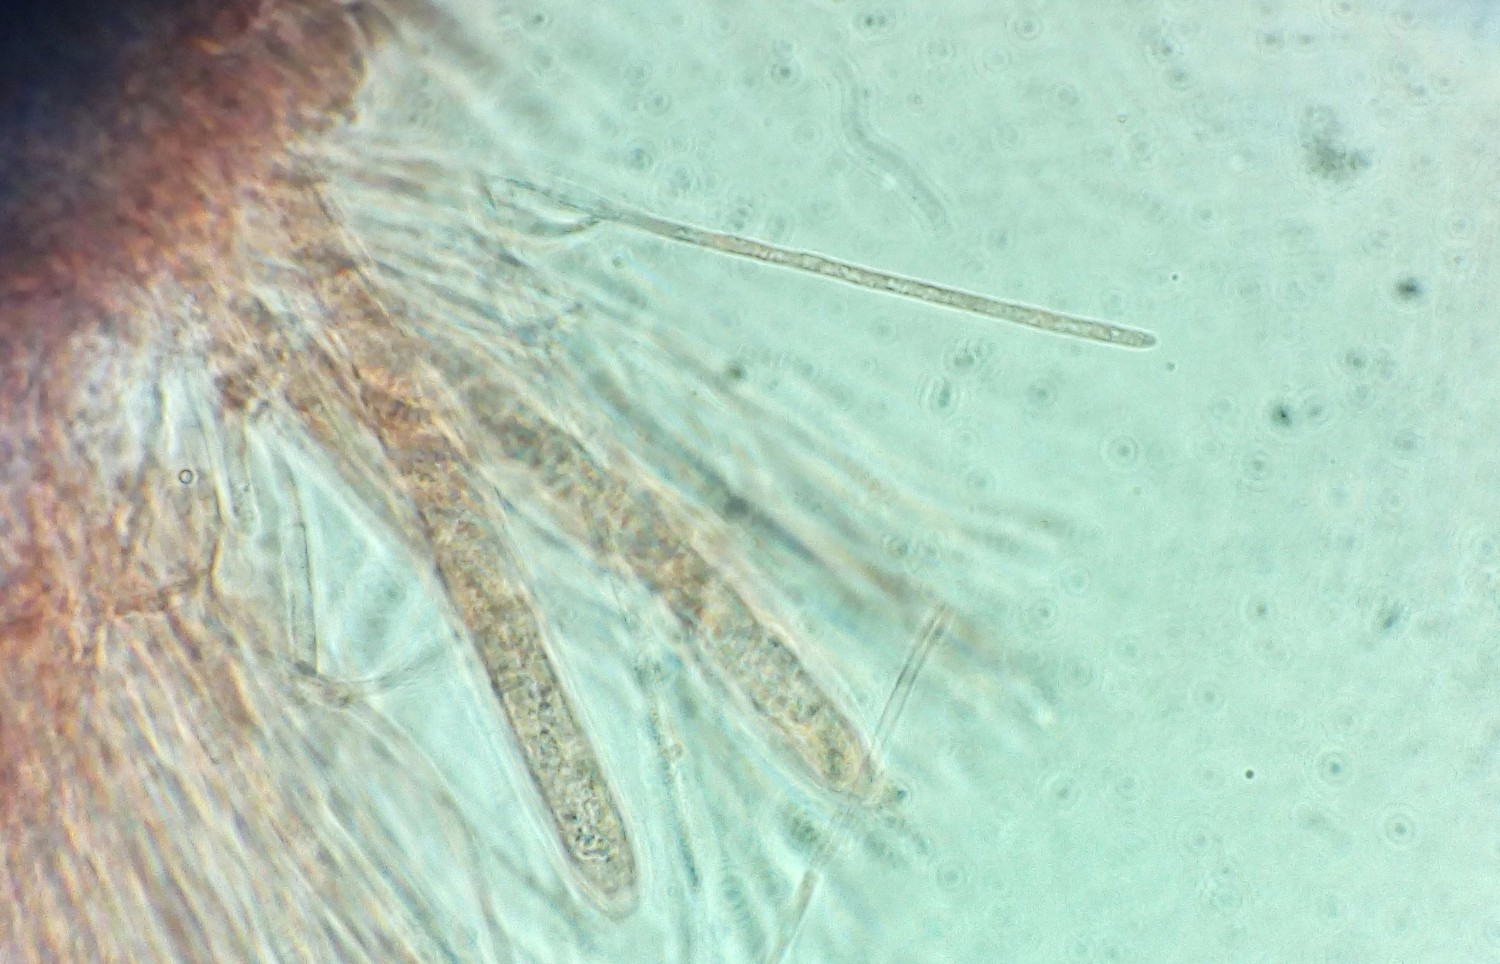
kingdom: Fungi
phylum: Ascomycota
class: Leotiomycetes
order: Helotiales
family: Helotiaceae
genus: Hymenoscyphus
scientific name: Hymenoscyphus serotinus
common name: krumsporet stilkskive
